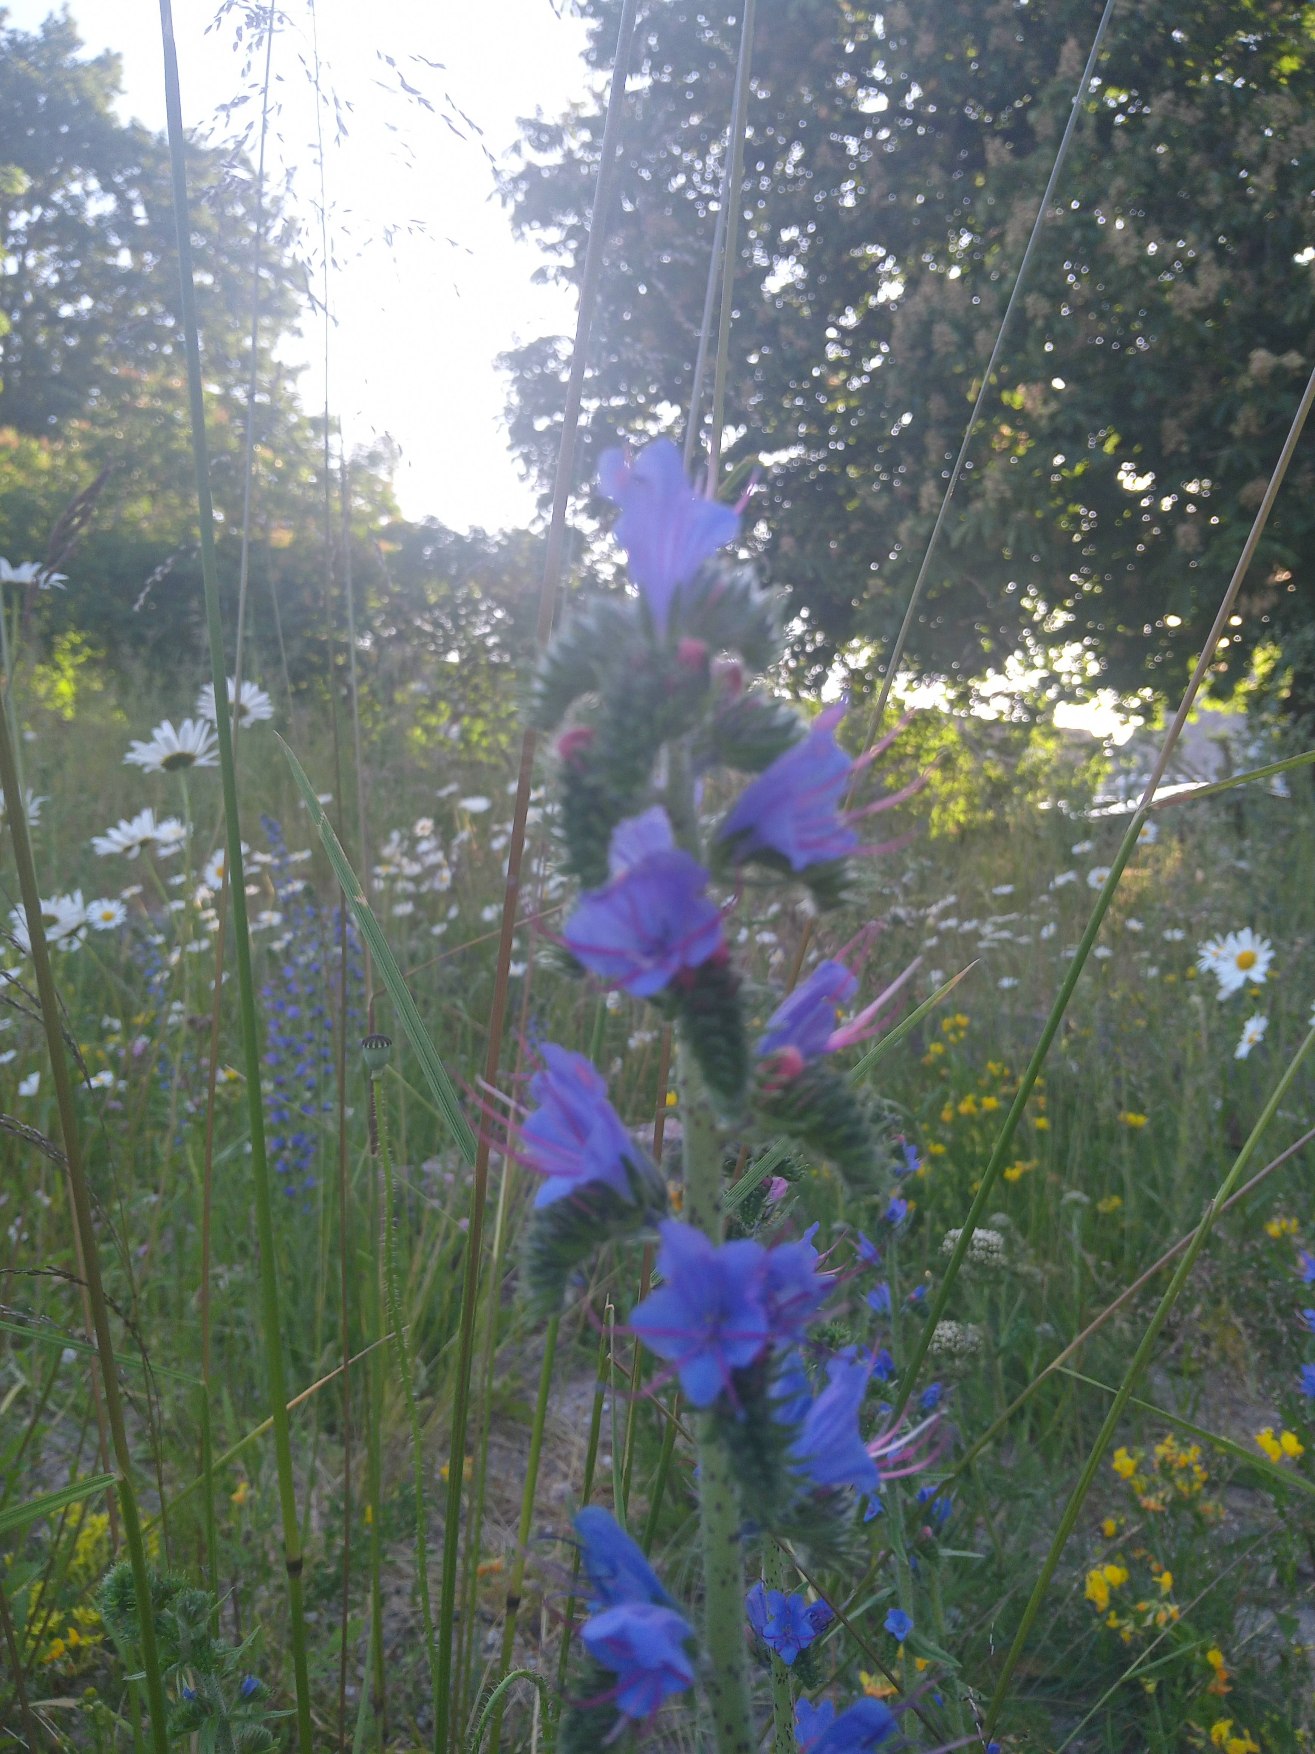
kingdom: Plantae
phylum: Tracheophyta
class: Magnoliopsida
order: Boraginales
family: Boraginaceae
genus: Echium
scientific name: Echium vulgare
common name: Slangehoved
